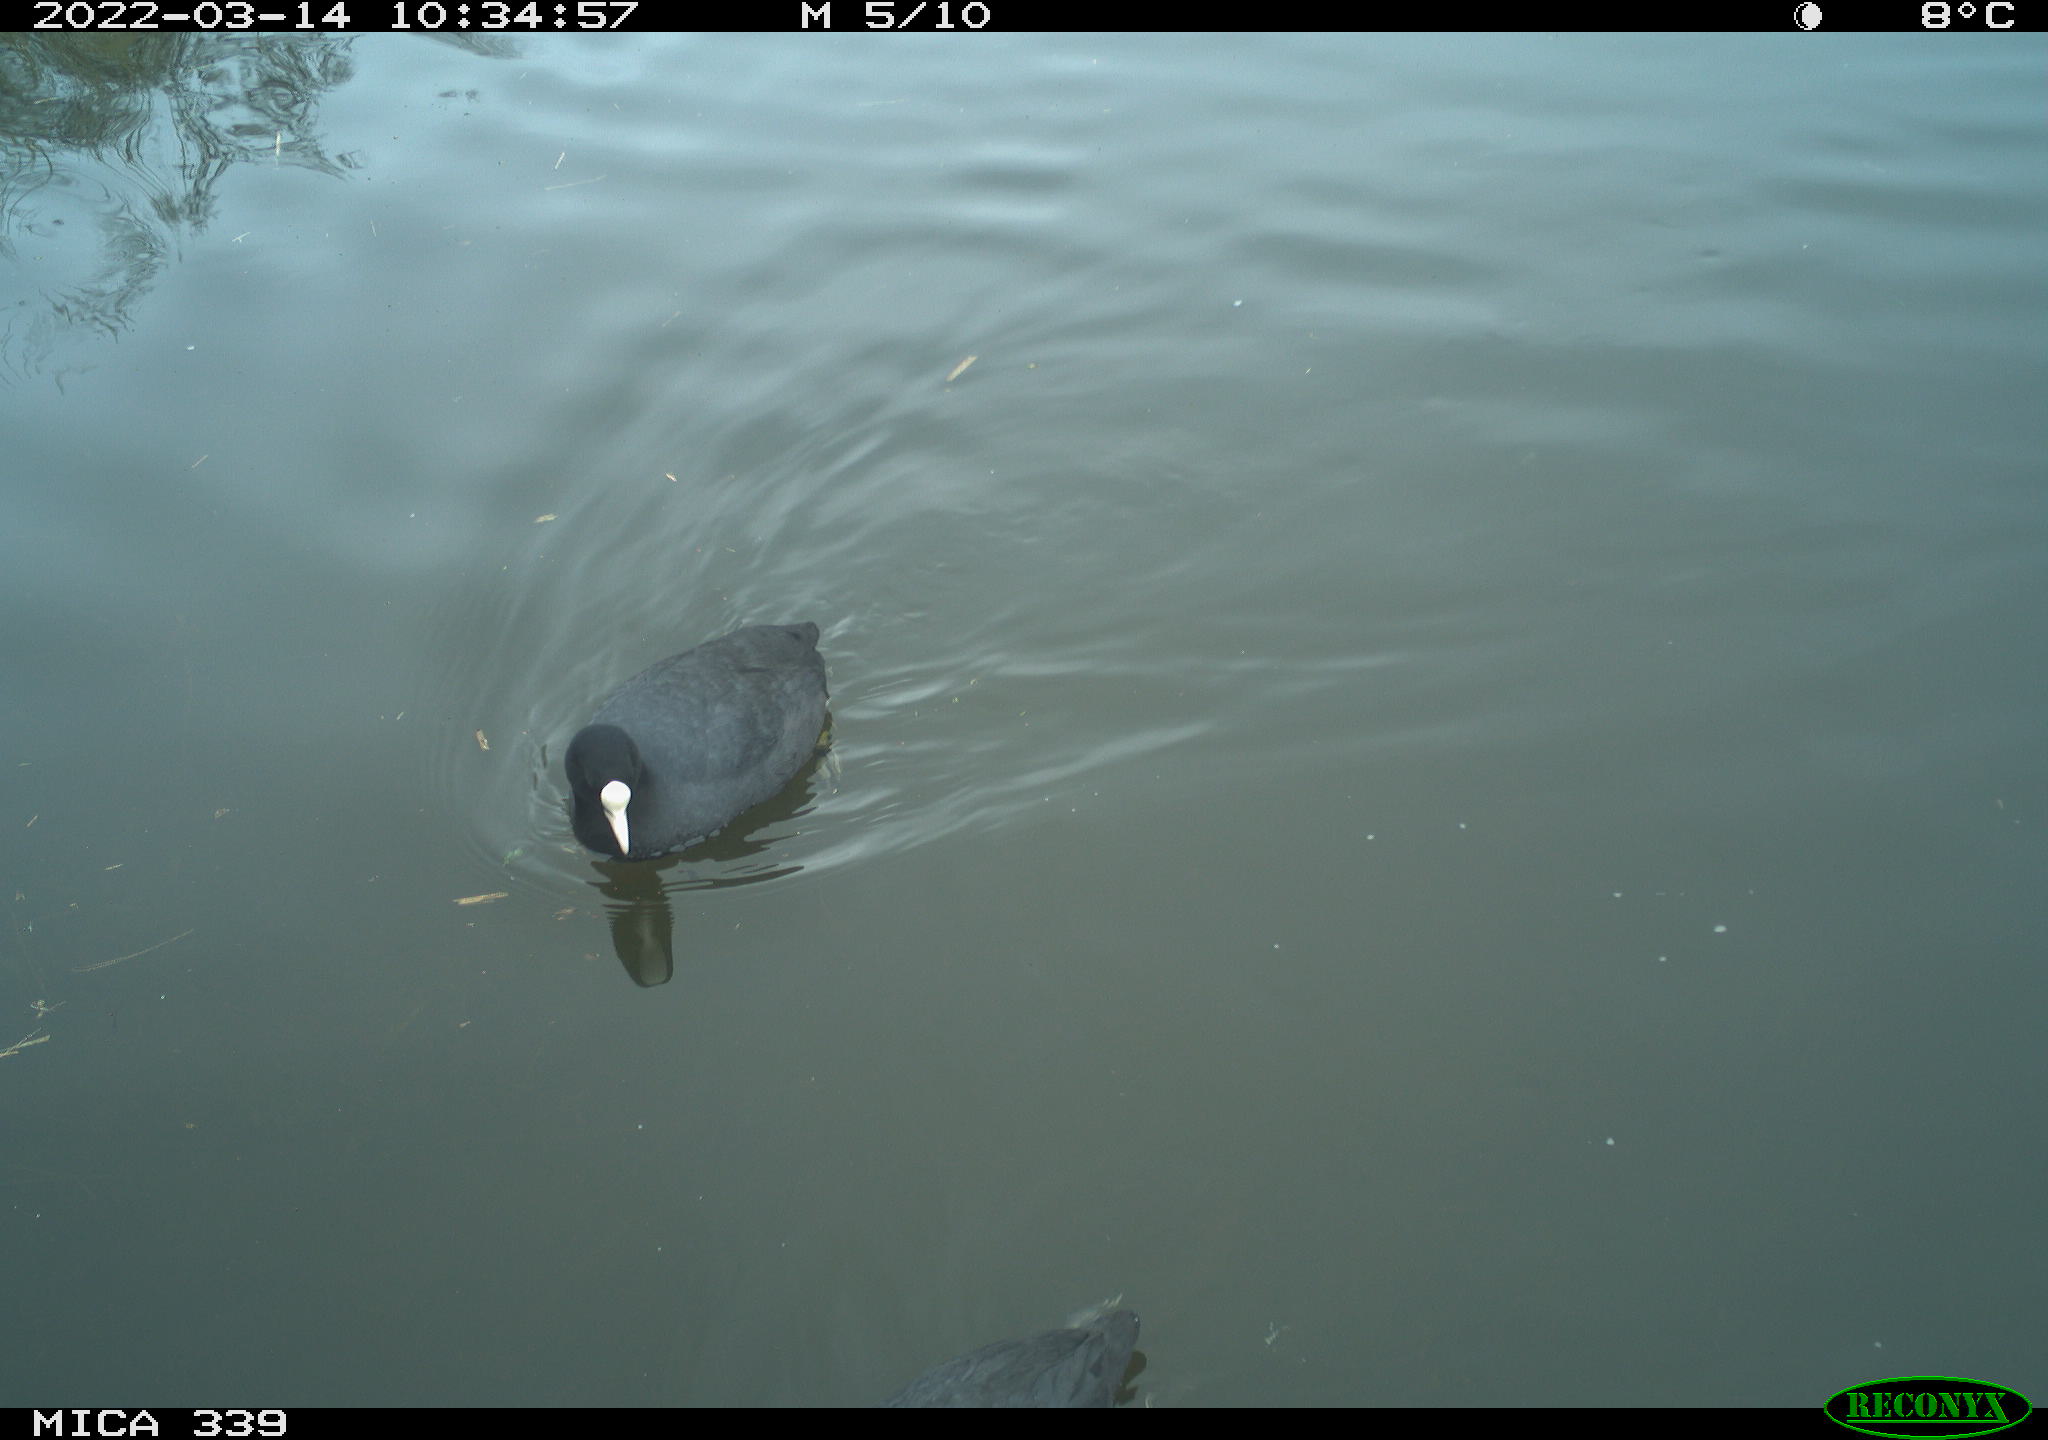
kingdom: Animalia
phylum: Chordata
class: Aves
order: Gruiformes
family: Rallidae
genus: Fulica
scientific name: Fulica atra
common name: Eurasian coot
